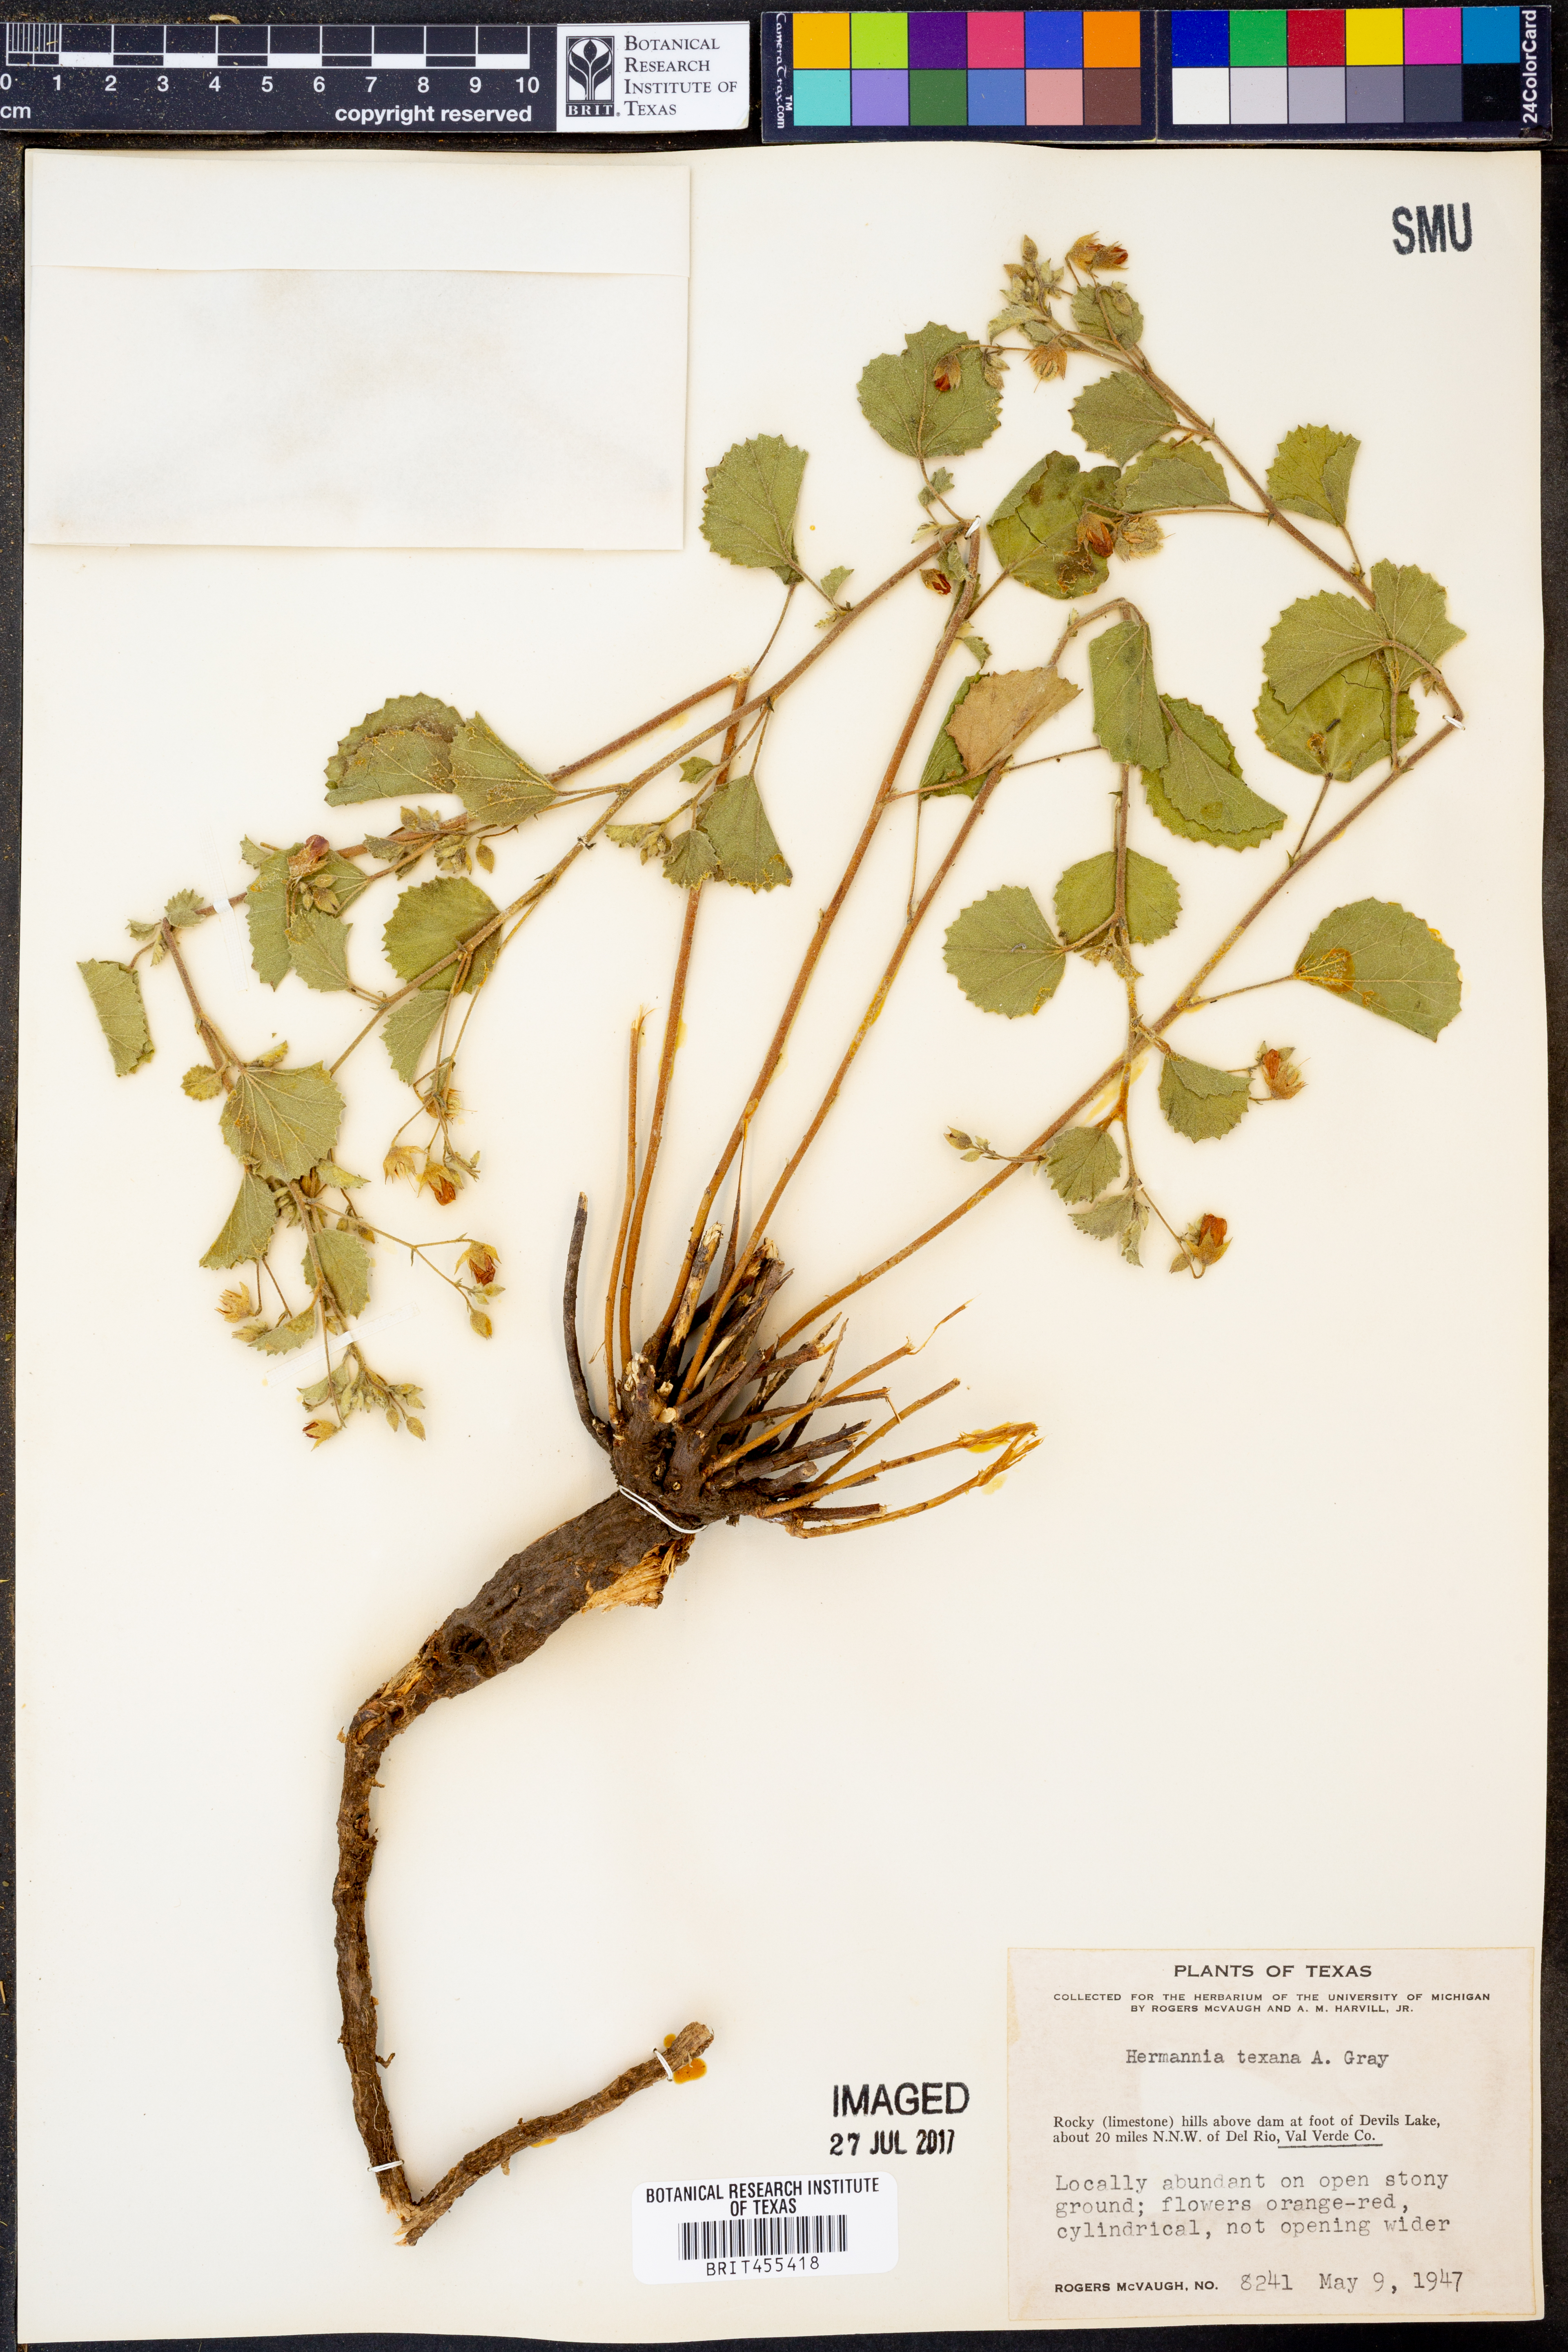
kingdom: Plantae
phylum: Tracheophyta
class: Magnoliopsida
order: Malvales
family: Malvaceae
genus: Hermannia
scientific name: Hermannia texana
